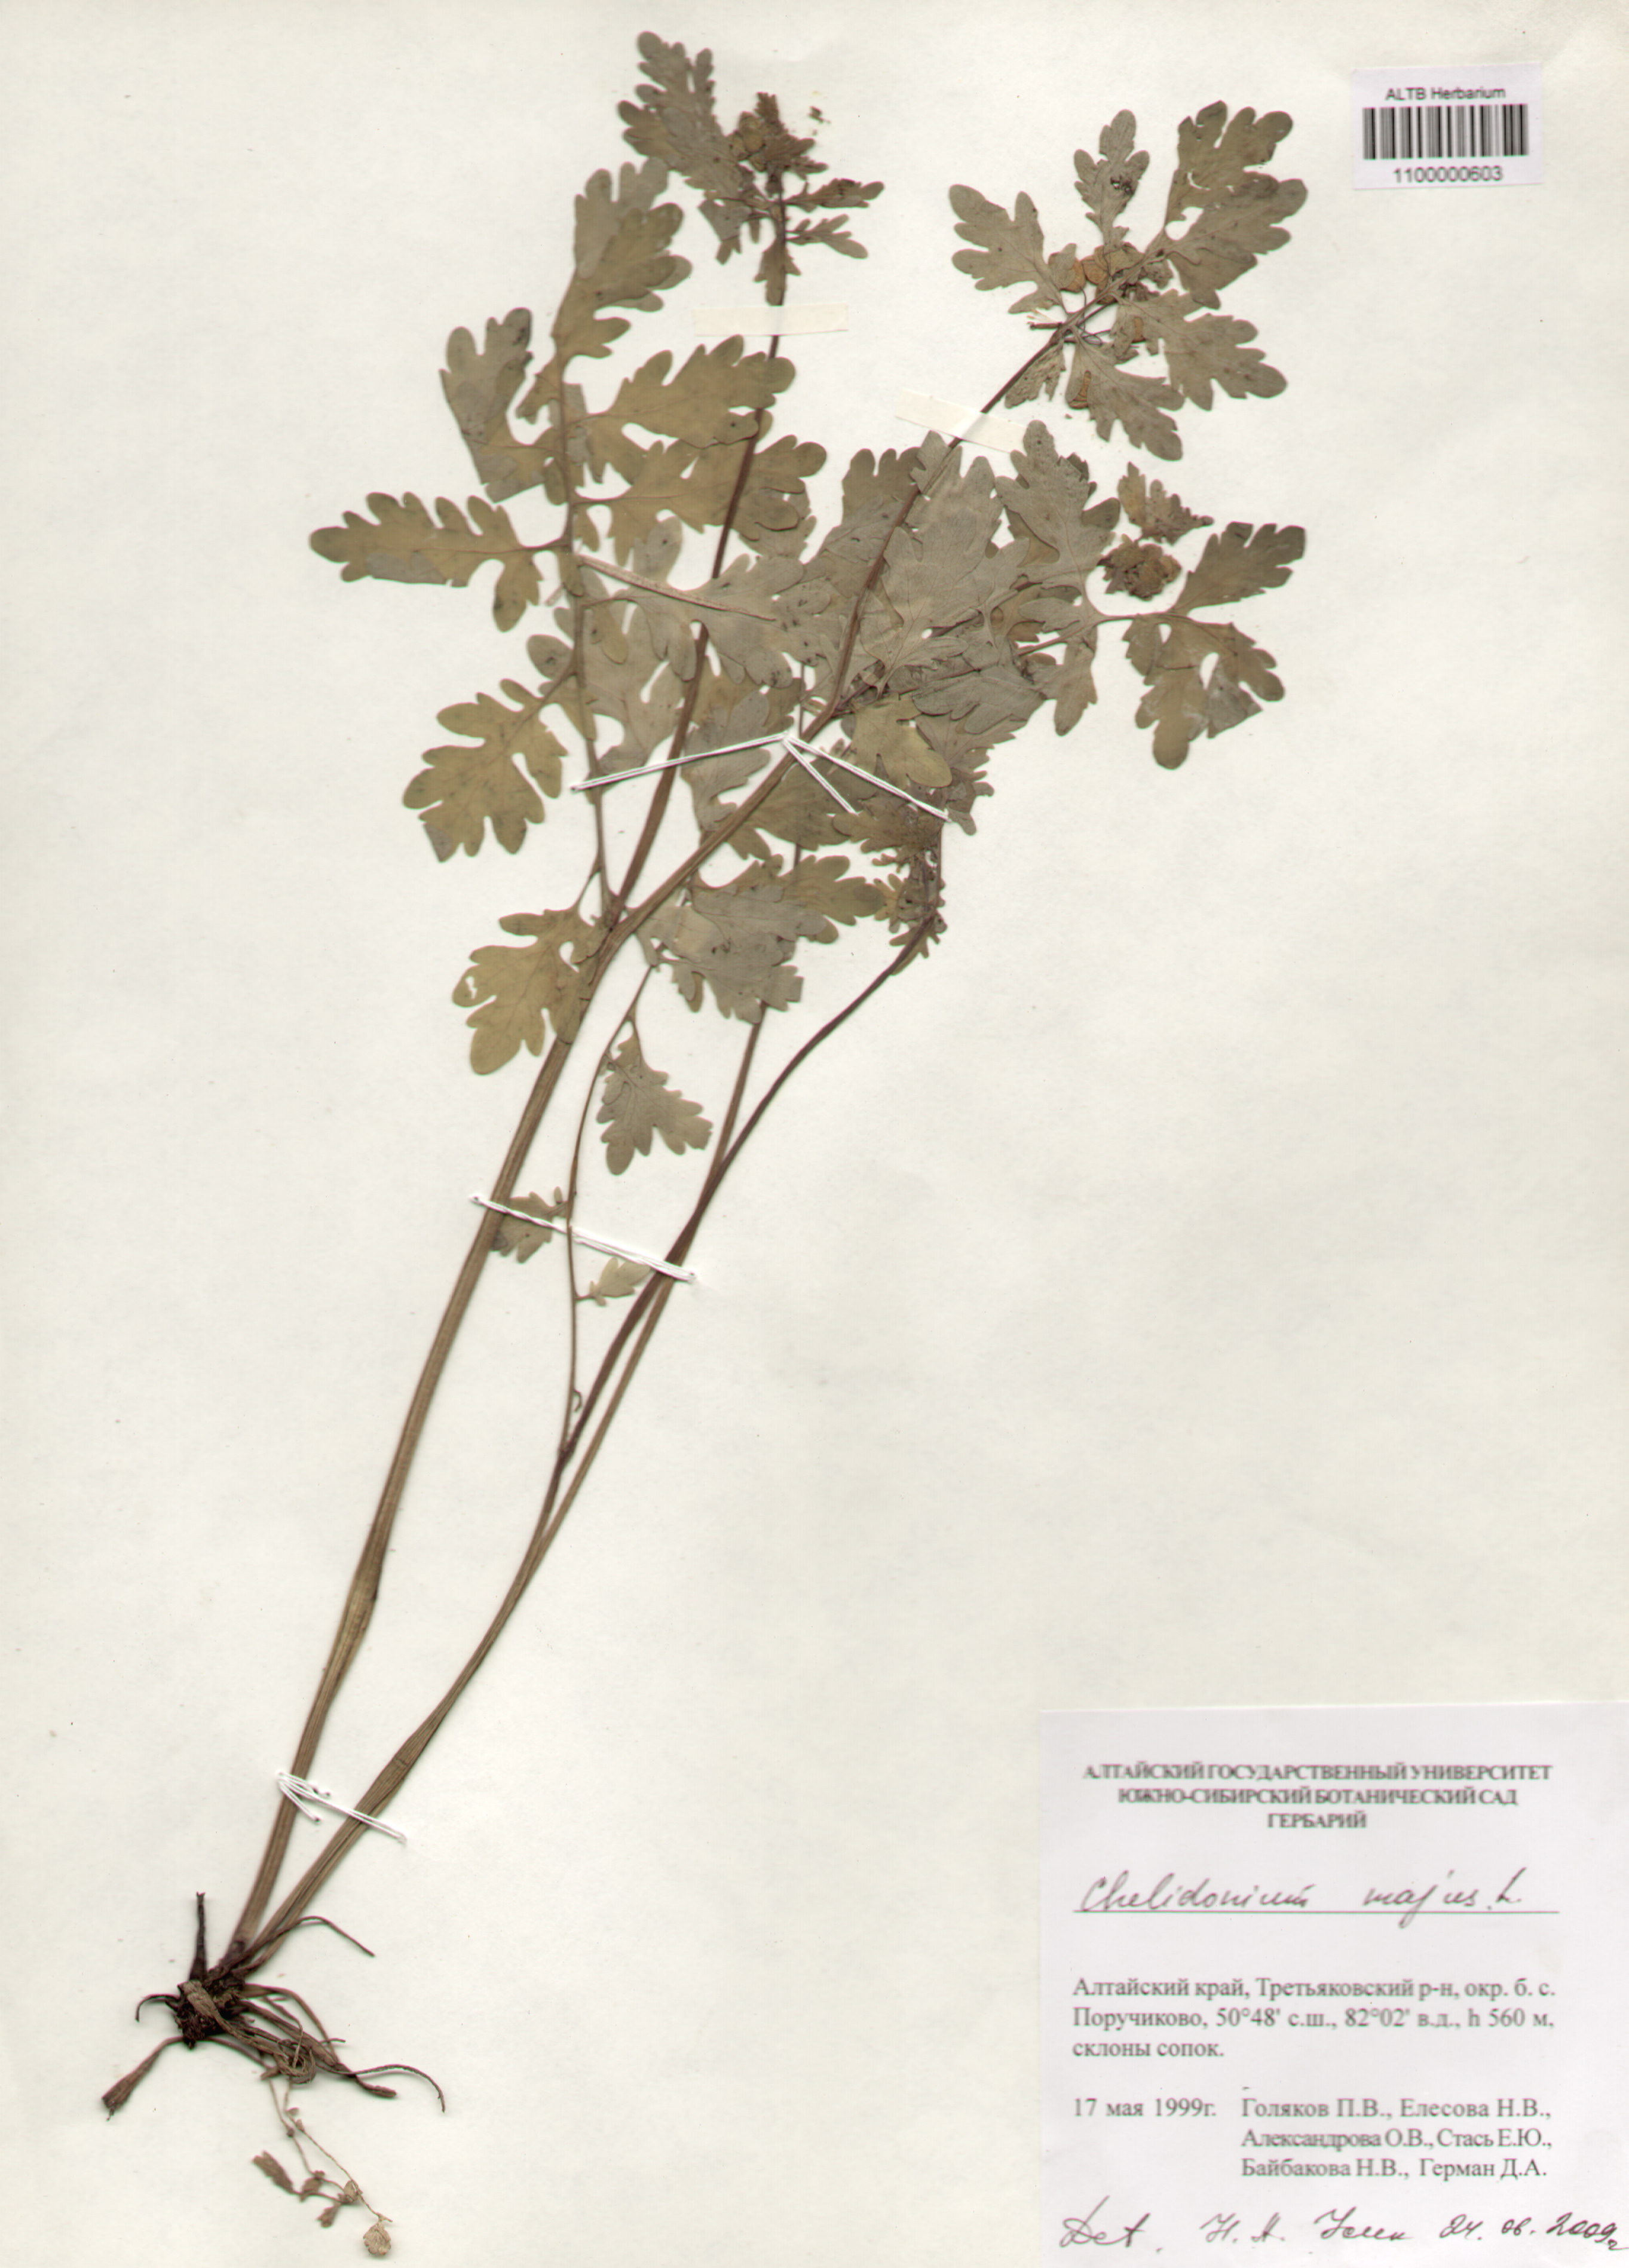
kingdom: Plantae
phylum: Tracheophyta
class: Magnoliopsida
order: Ceratophyllales
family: Ceratophyllaceae
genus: Ceratophyllum
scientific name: Ceratophyllum demersum
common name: Rigid hornwort
